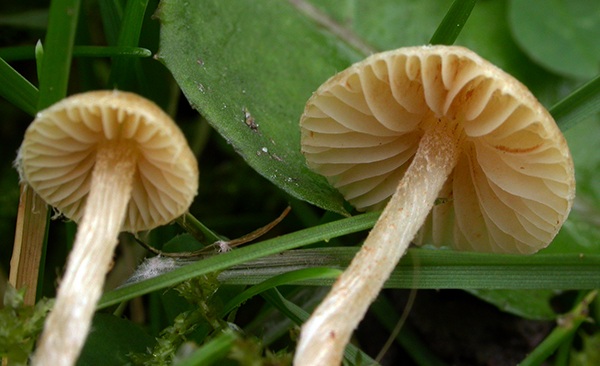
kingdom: Fungi
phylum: Basidiomycota
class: Agaricomycetes
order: Agaricales
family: Hymenogastraceae
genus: Galerina
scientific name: Galerina graminea
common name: plæne-hjelmhat
